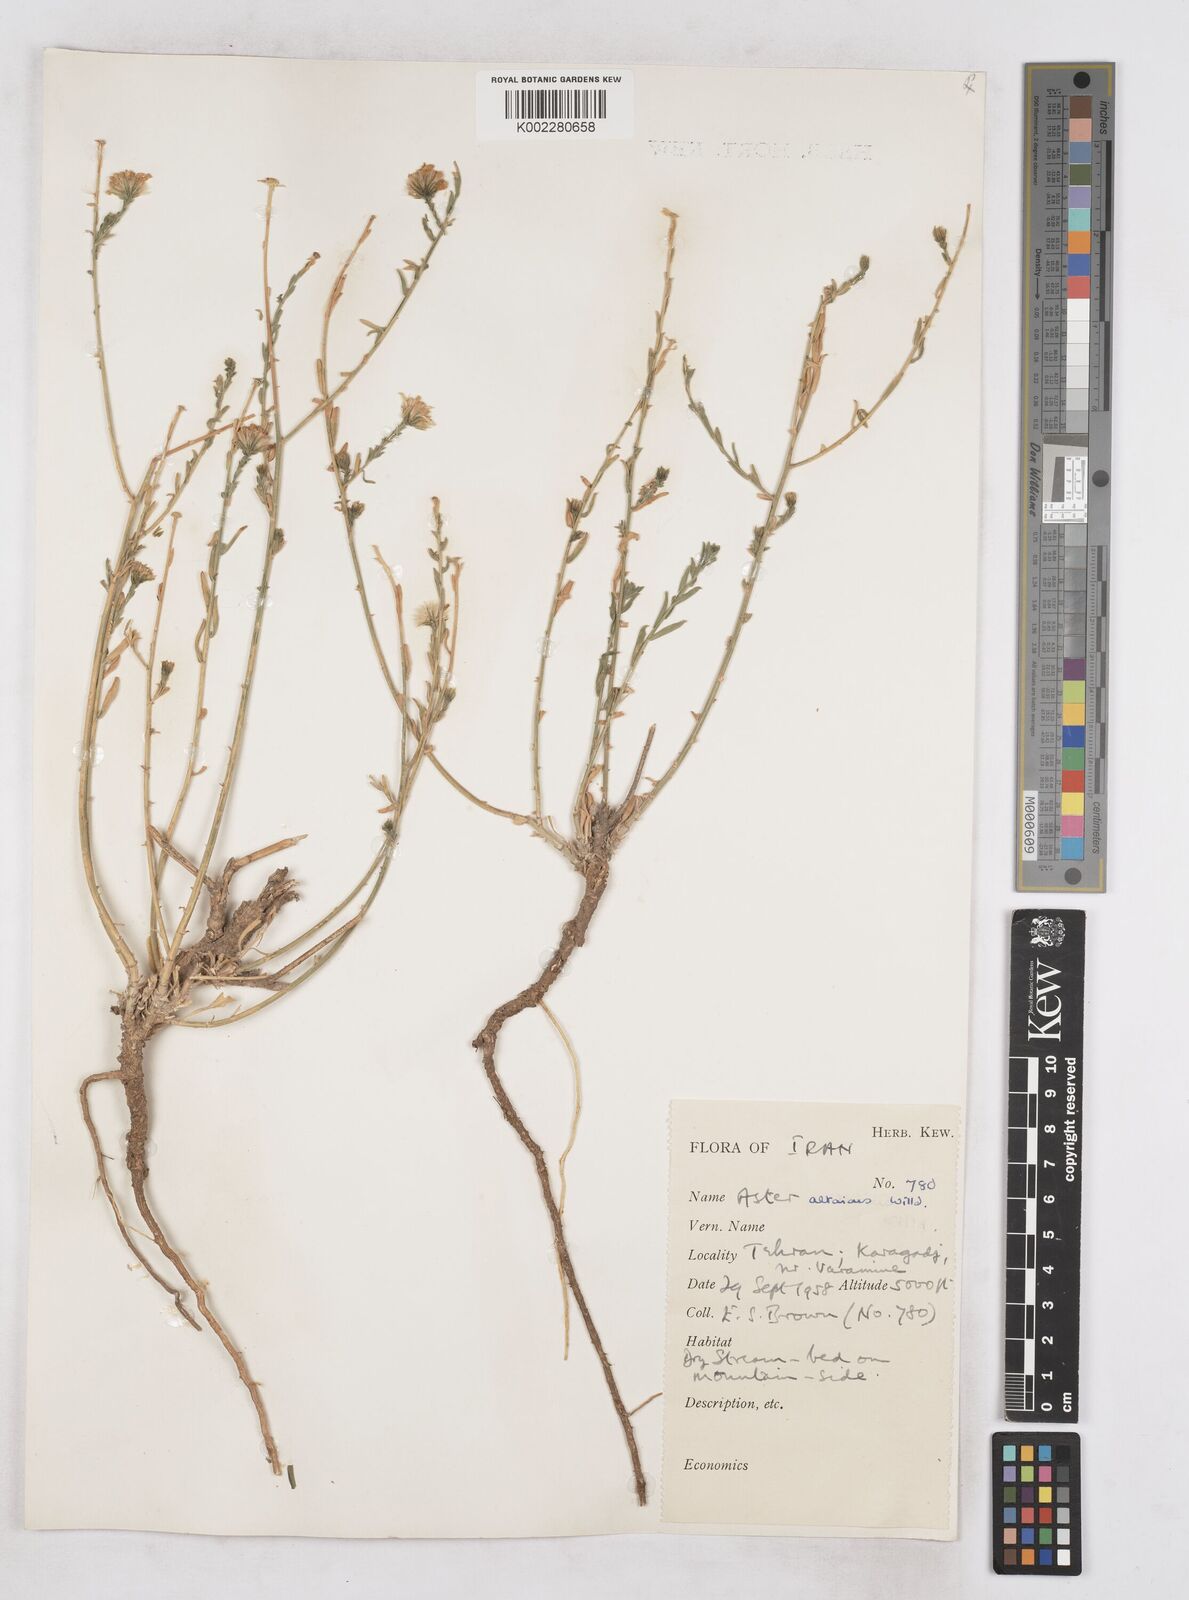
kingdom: Plantae
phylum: Tracheophyta
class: Magnoliopsida
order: Asterales
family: Asteraceae
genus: Heteropappus
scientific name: Heteropappus altaicus
